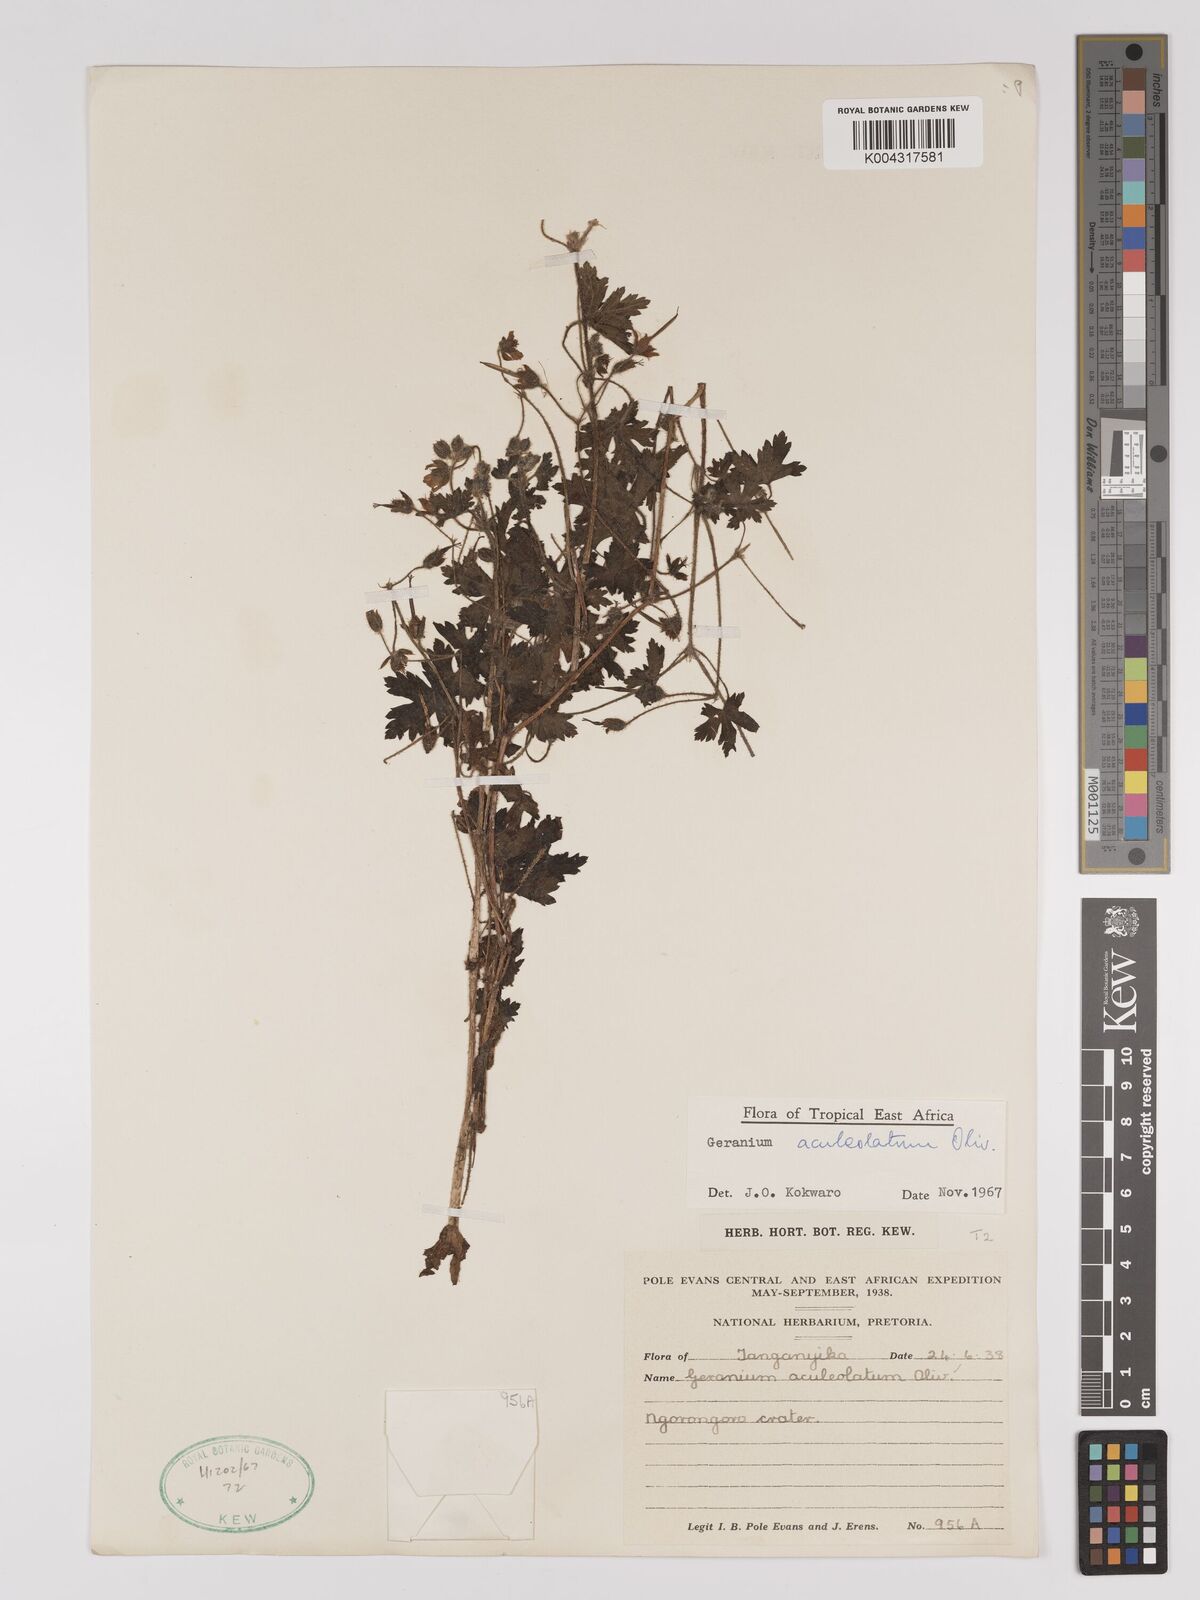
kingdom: Plantae
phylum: Tracheophyta
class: Magnoliopsida
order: Geraniales
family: Geraniaceae
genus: Geranium
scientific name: Geranium aculeolatum
